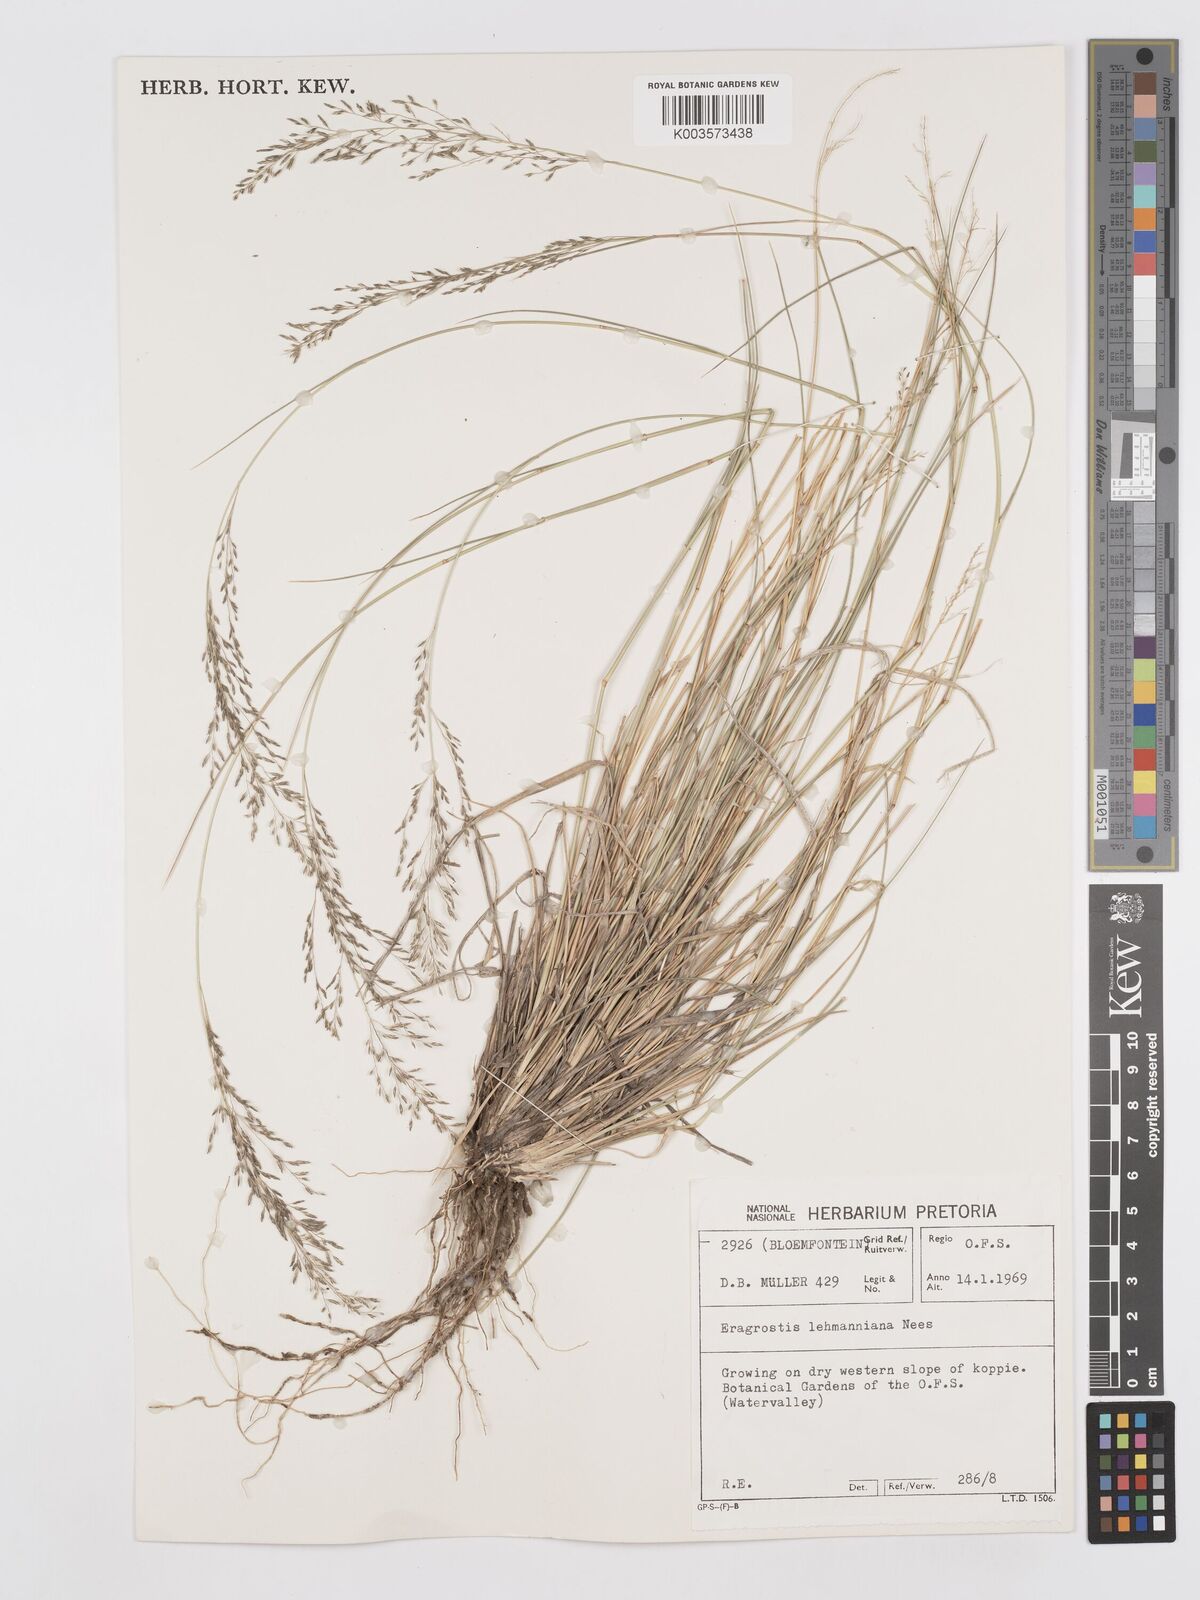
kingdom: Plantae
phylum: Tracheophyta
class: Liliopsida
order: Poales
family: Poaceae
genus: Eragrostis
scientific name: Eragrostis lehmanniana
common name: Lehmann lovegrass
